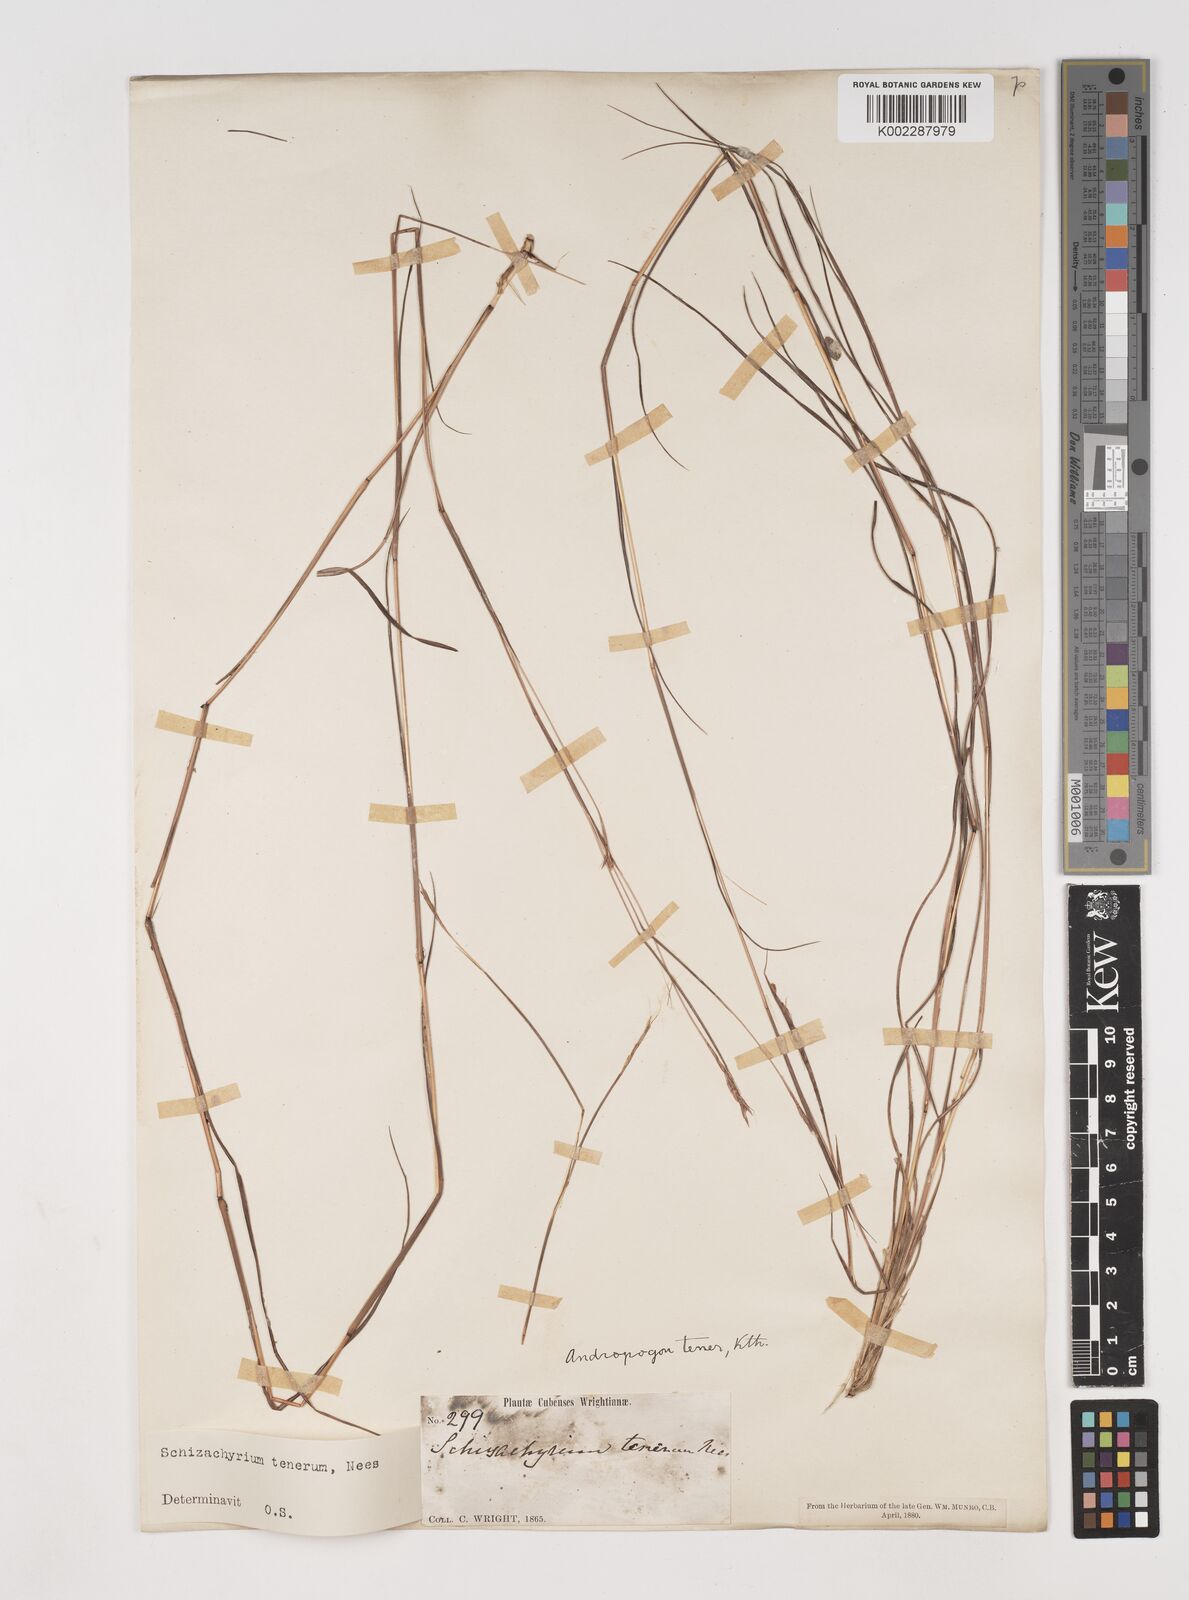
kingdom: Plantae
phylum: Tracheophyta
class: Liliopsida
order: Poales
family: Poaceae
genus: Andropogon
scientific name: Andropogon tener
